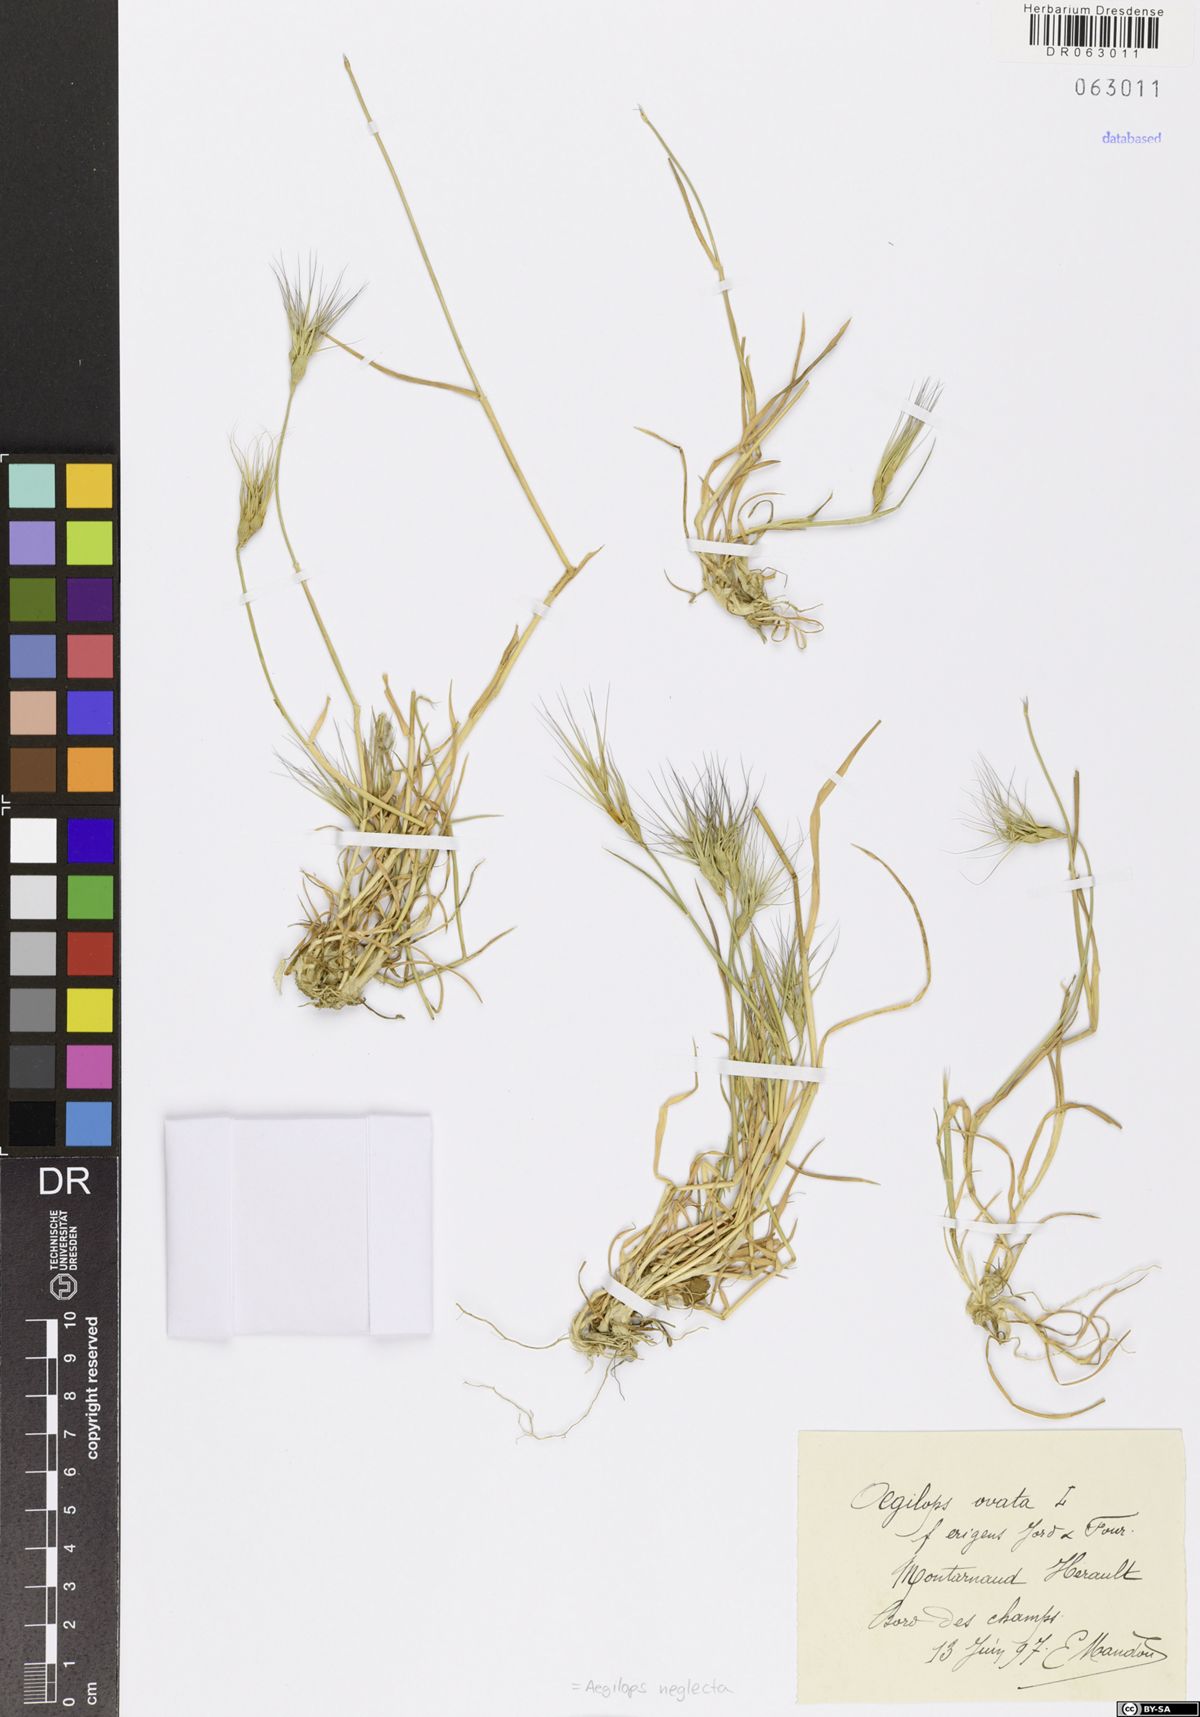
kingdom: Plantae
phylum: Tracheophyta
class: Liliopsida
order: Poales
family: Poaceae
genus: Aegilops
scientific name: Aegilops neglecta
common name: Three-awn goat grass
